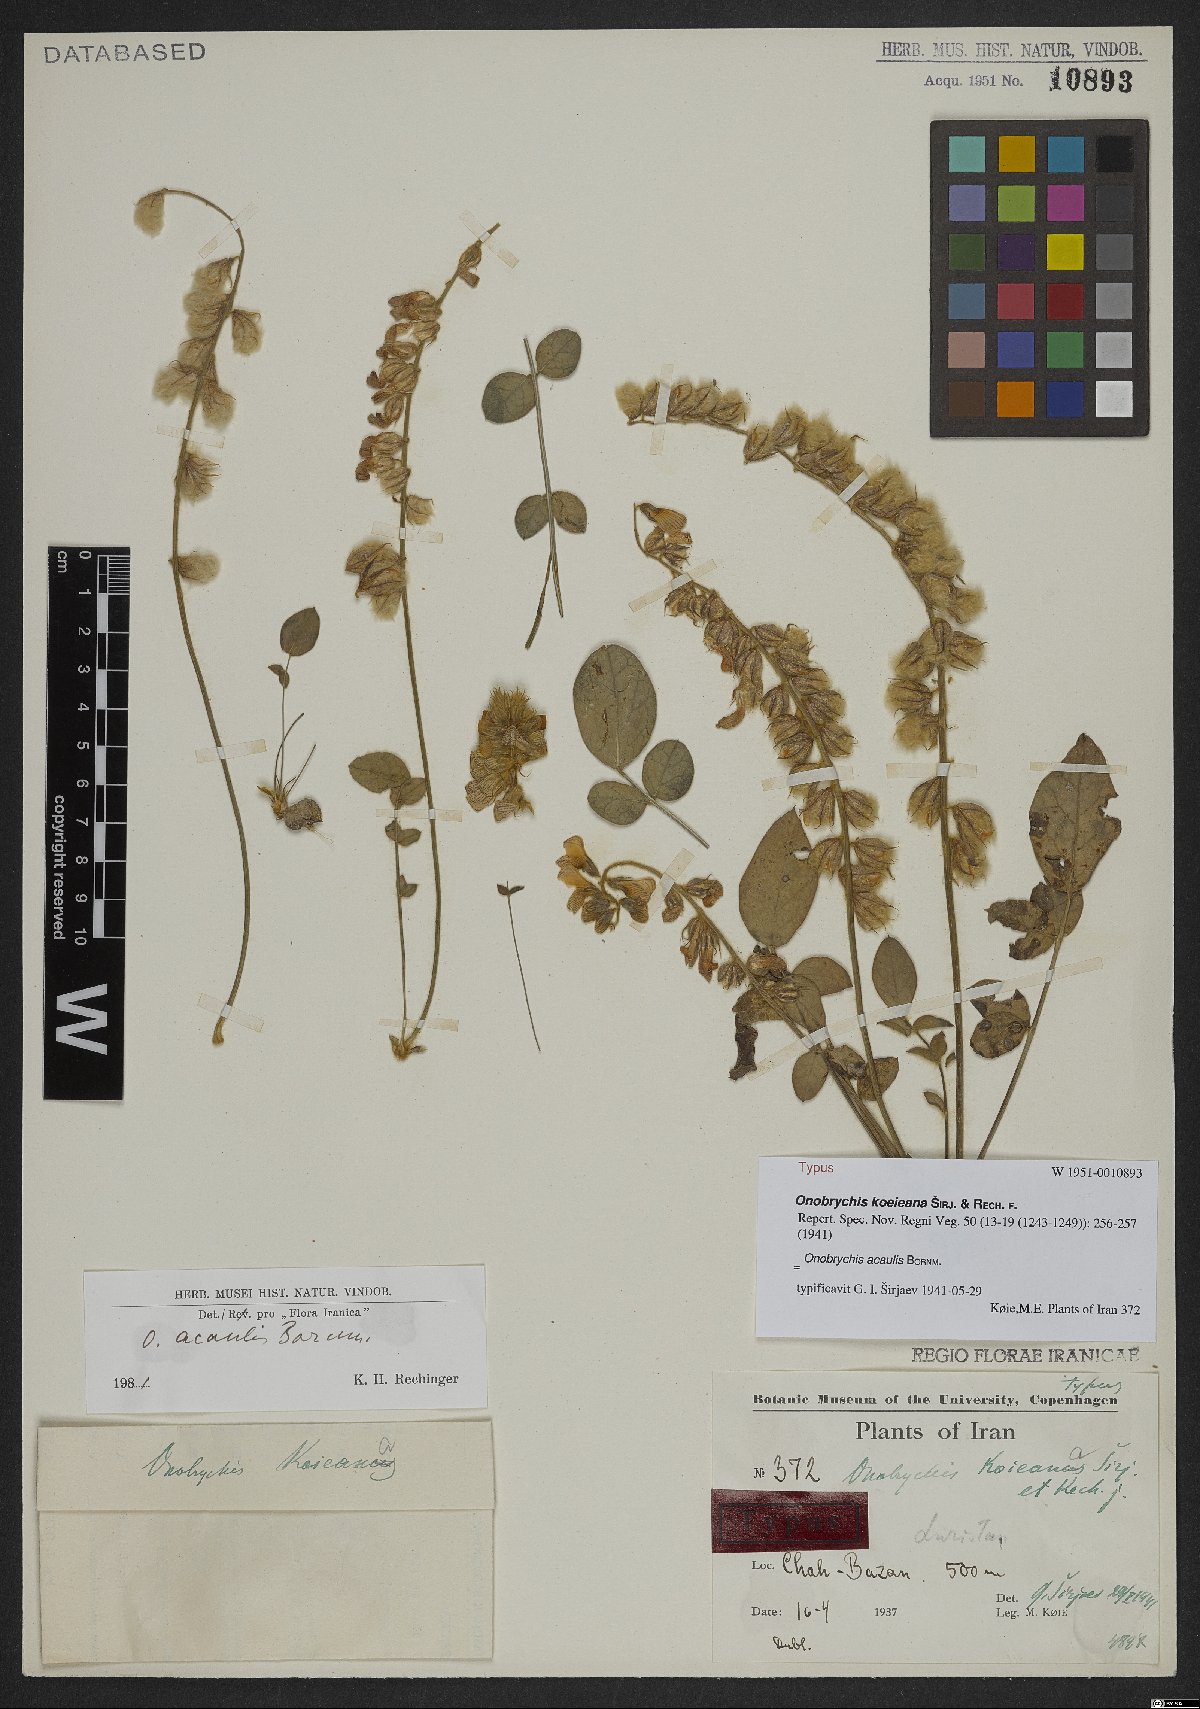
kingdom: Plantae
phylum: Tracheophyta
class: Magnoliopsida
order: Fabales
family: Fabaceae
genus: Onobrychis
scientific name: Onobrychis acaulis
